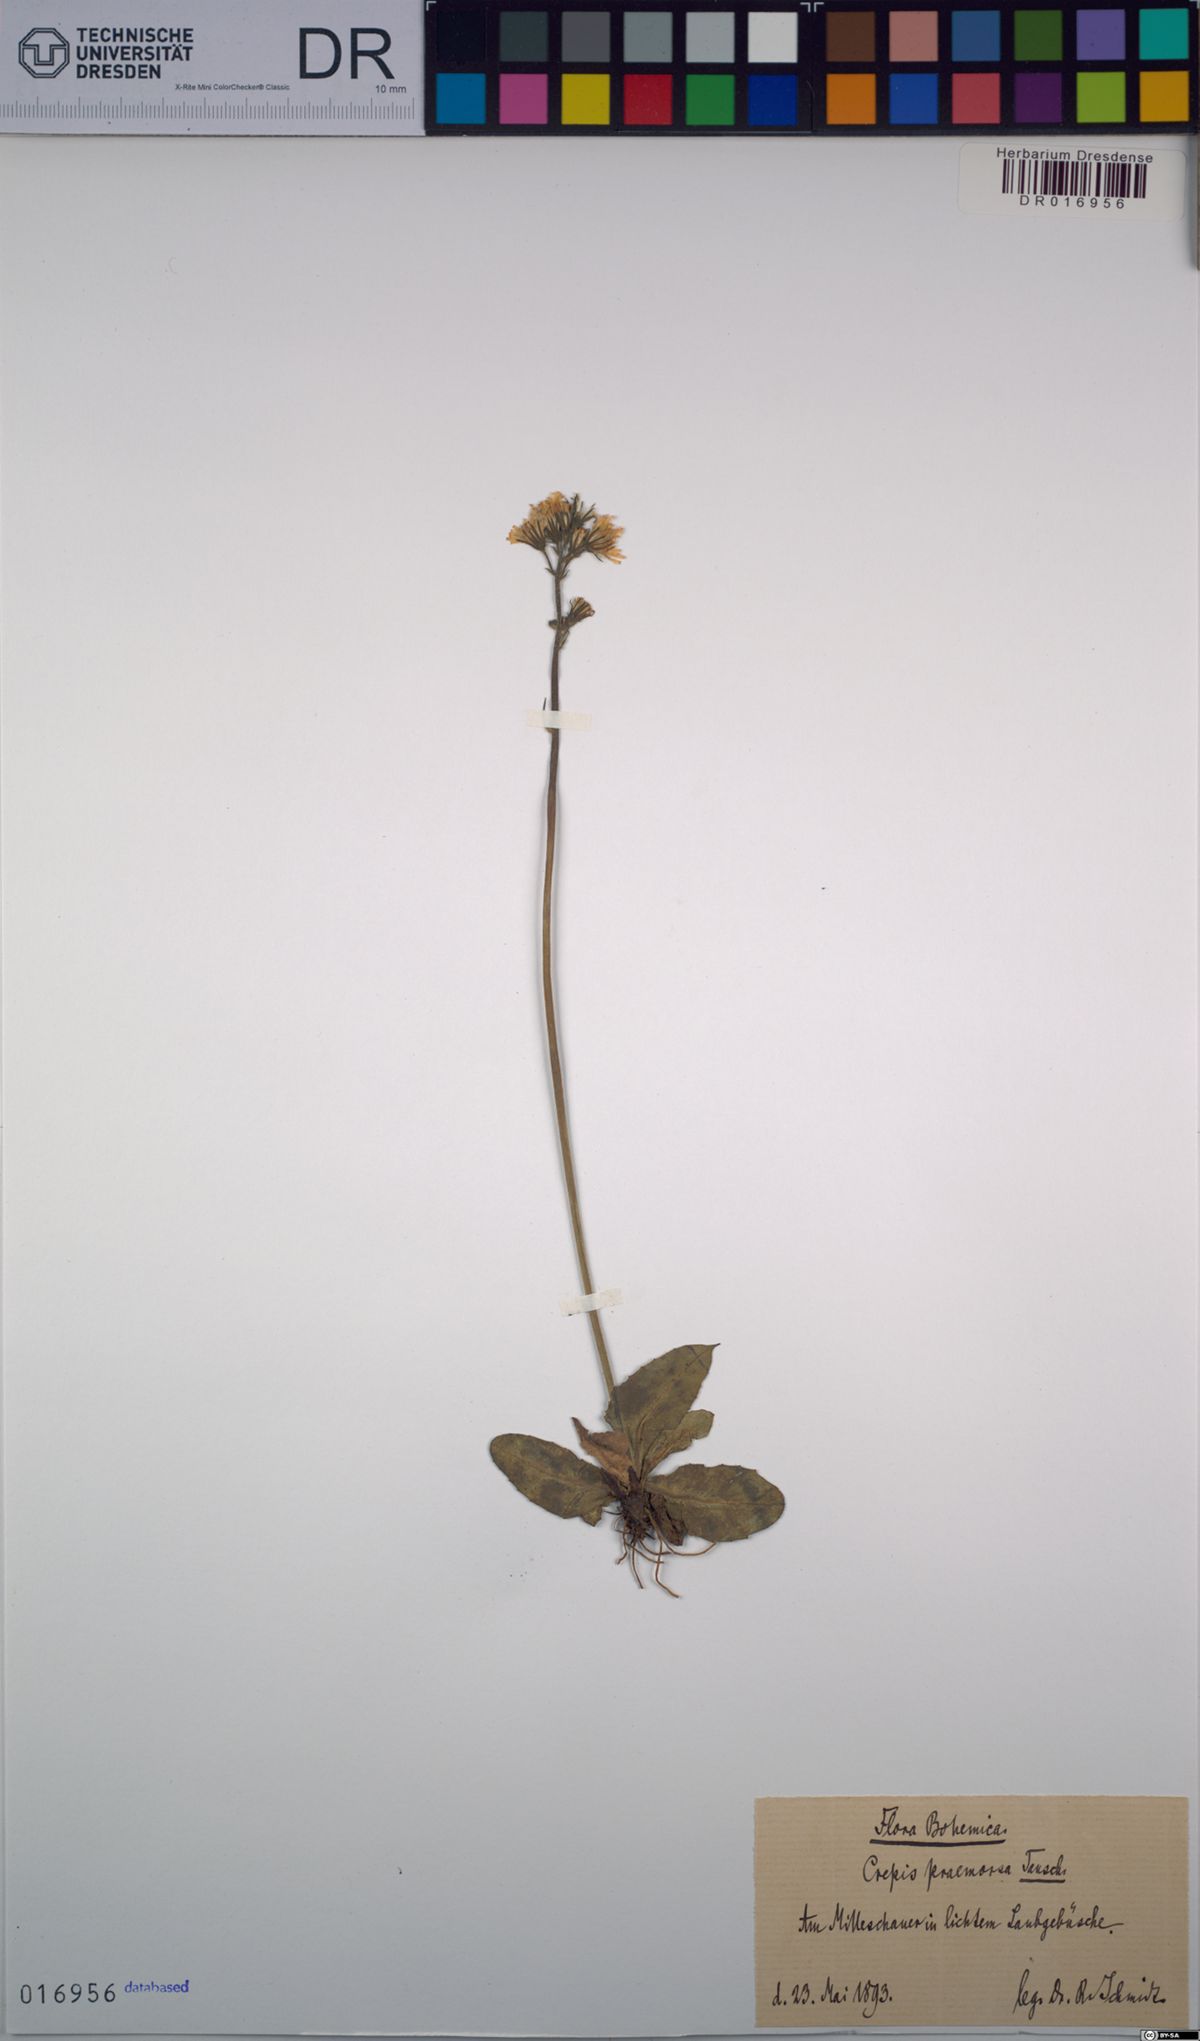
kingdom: Plantae
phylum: Tracheophyta
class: Magnoliopsida
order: Asterales
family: Asteraceae
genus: Crepis
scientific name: Crepis praemorsa
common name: Leafless hawk's-beard
